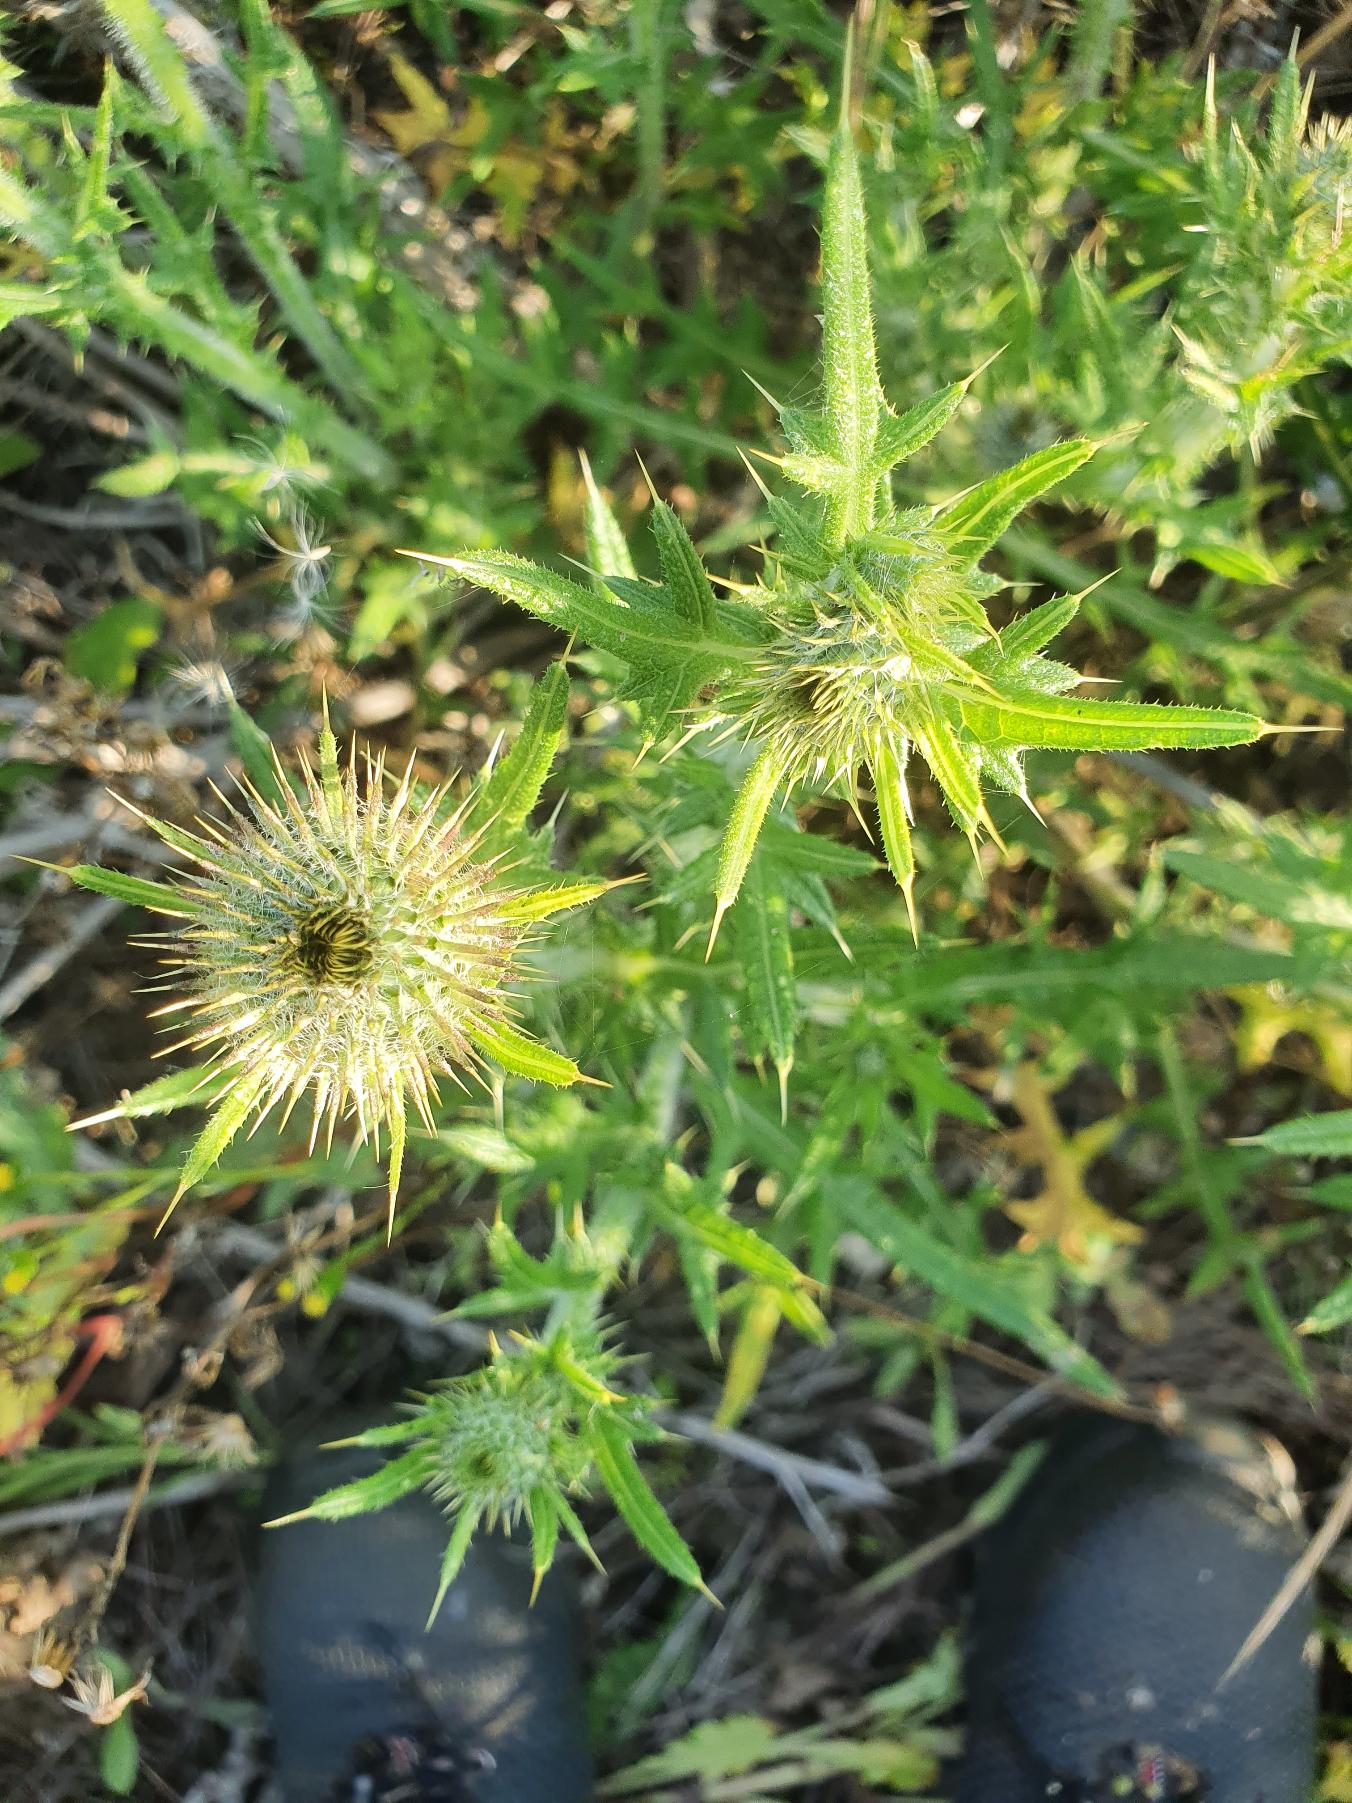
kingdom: Plantae
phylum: Tracheophyta
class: Magnoliopsida
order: Asterales
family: Asteraceae
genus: Cirsium
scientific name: Cirsium vulgare
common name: Horse-tidsel
